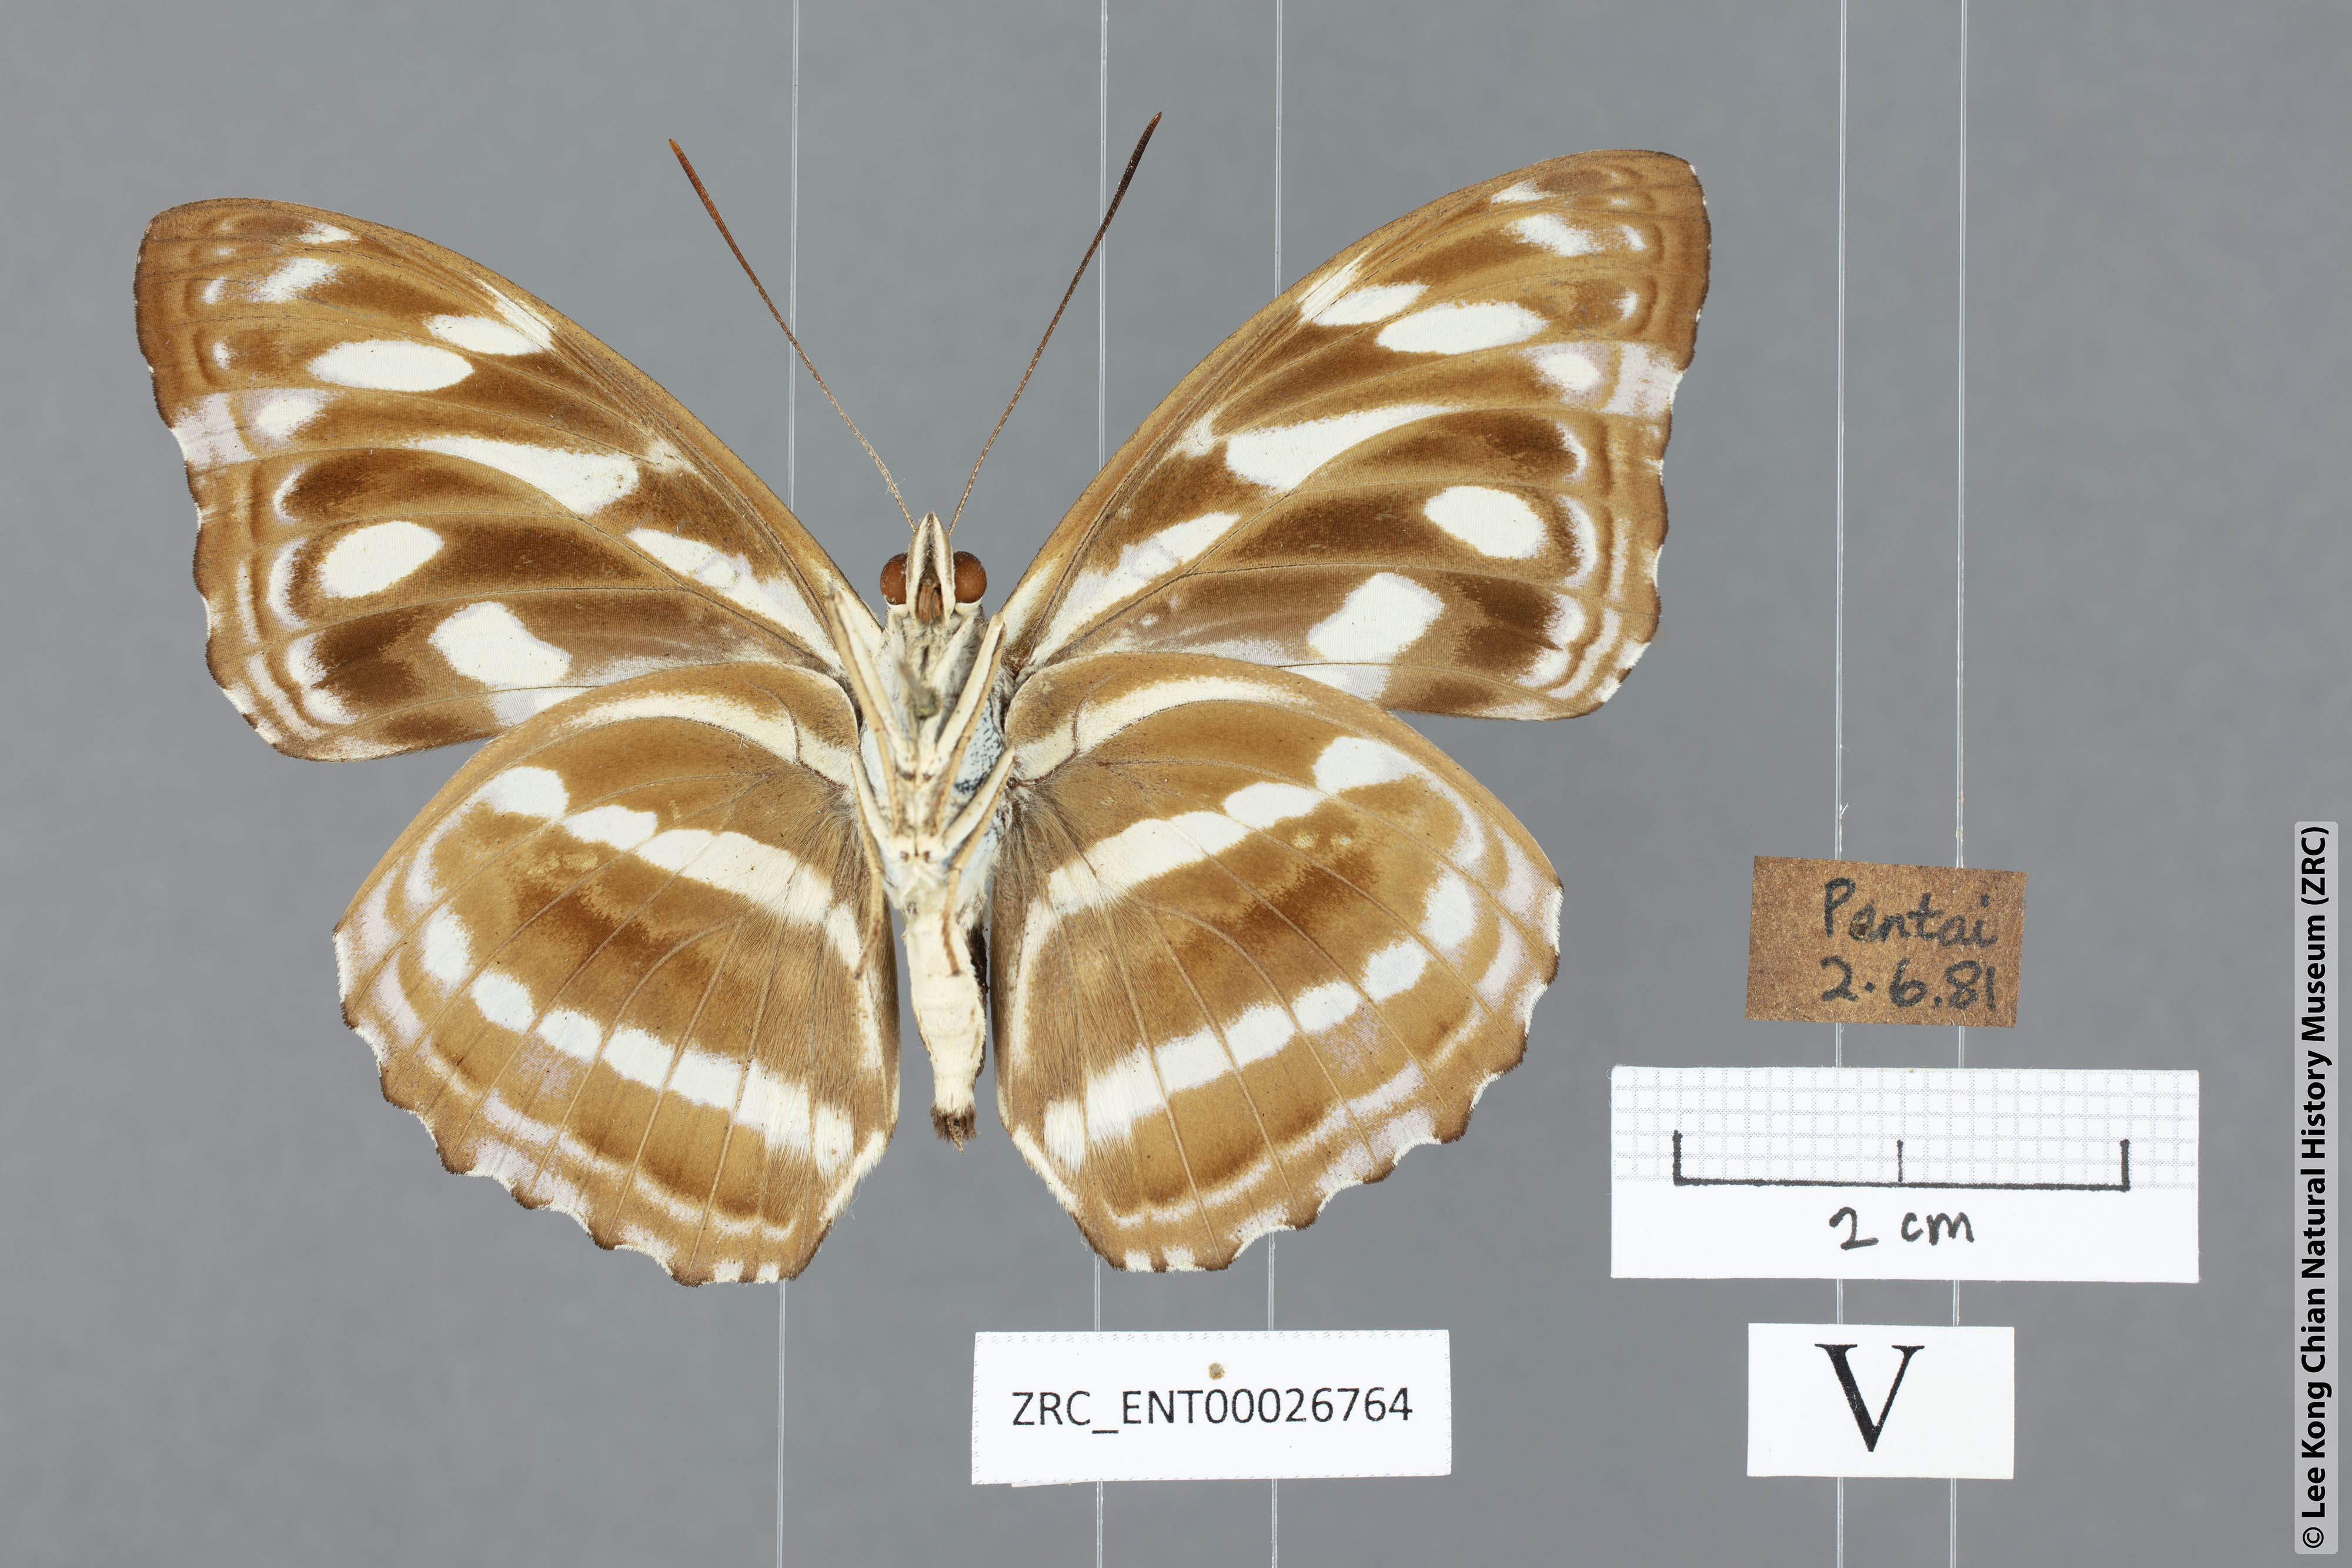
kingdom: Animalia
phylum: Arthropoda
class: Insecta
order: Lepidoptera
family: Nymphalidae
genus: Pantoporia
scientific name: Pantoporia larymna
